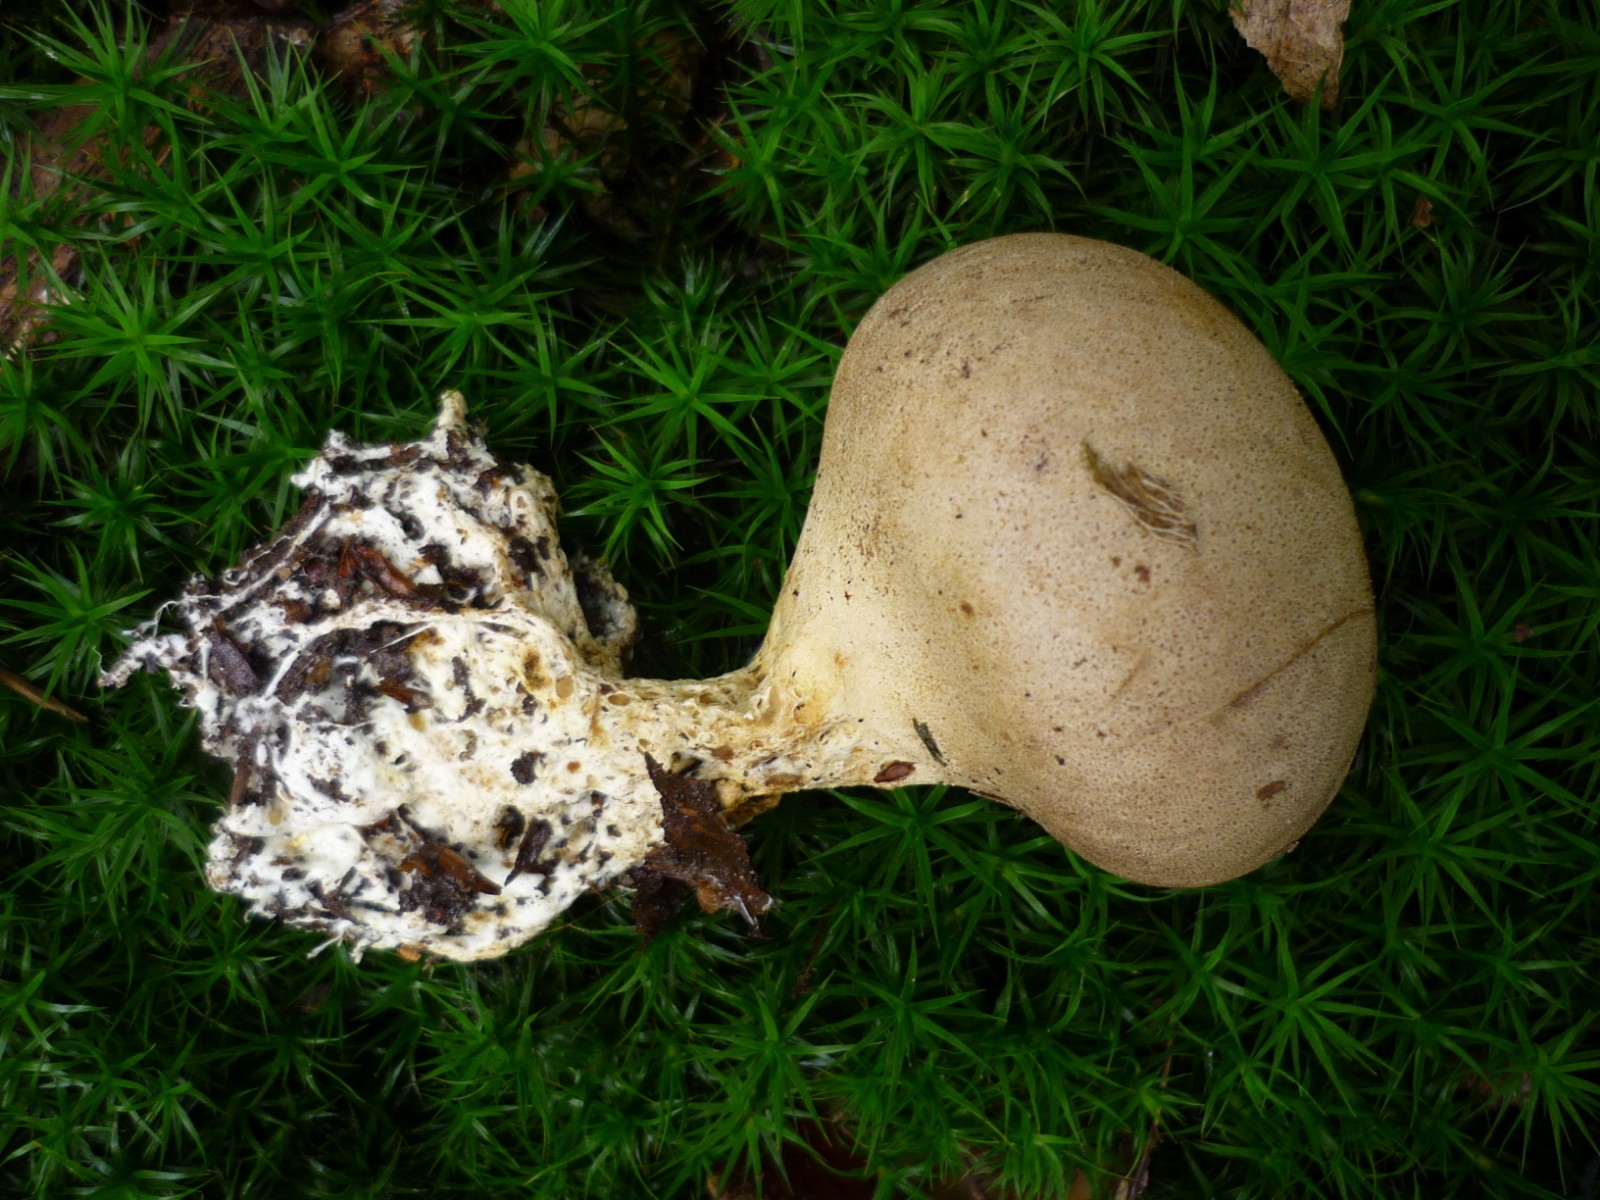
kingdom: Fungi
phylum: Basidiomycota
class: Agaricomycetes
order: Boletales
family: Sclerodermataceae
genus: Scleroderma
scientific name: Scleroderma verrucosum
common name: stilket bruskbold
